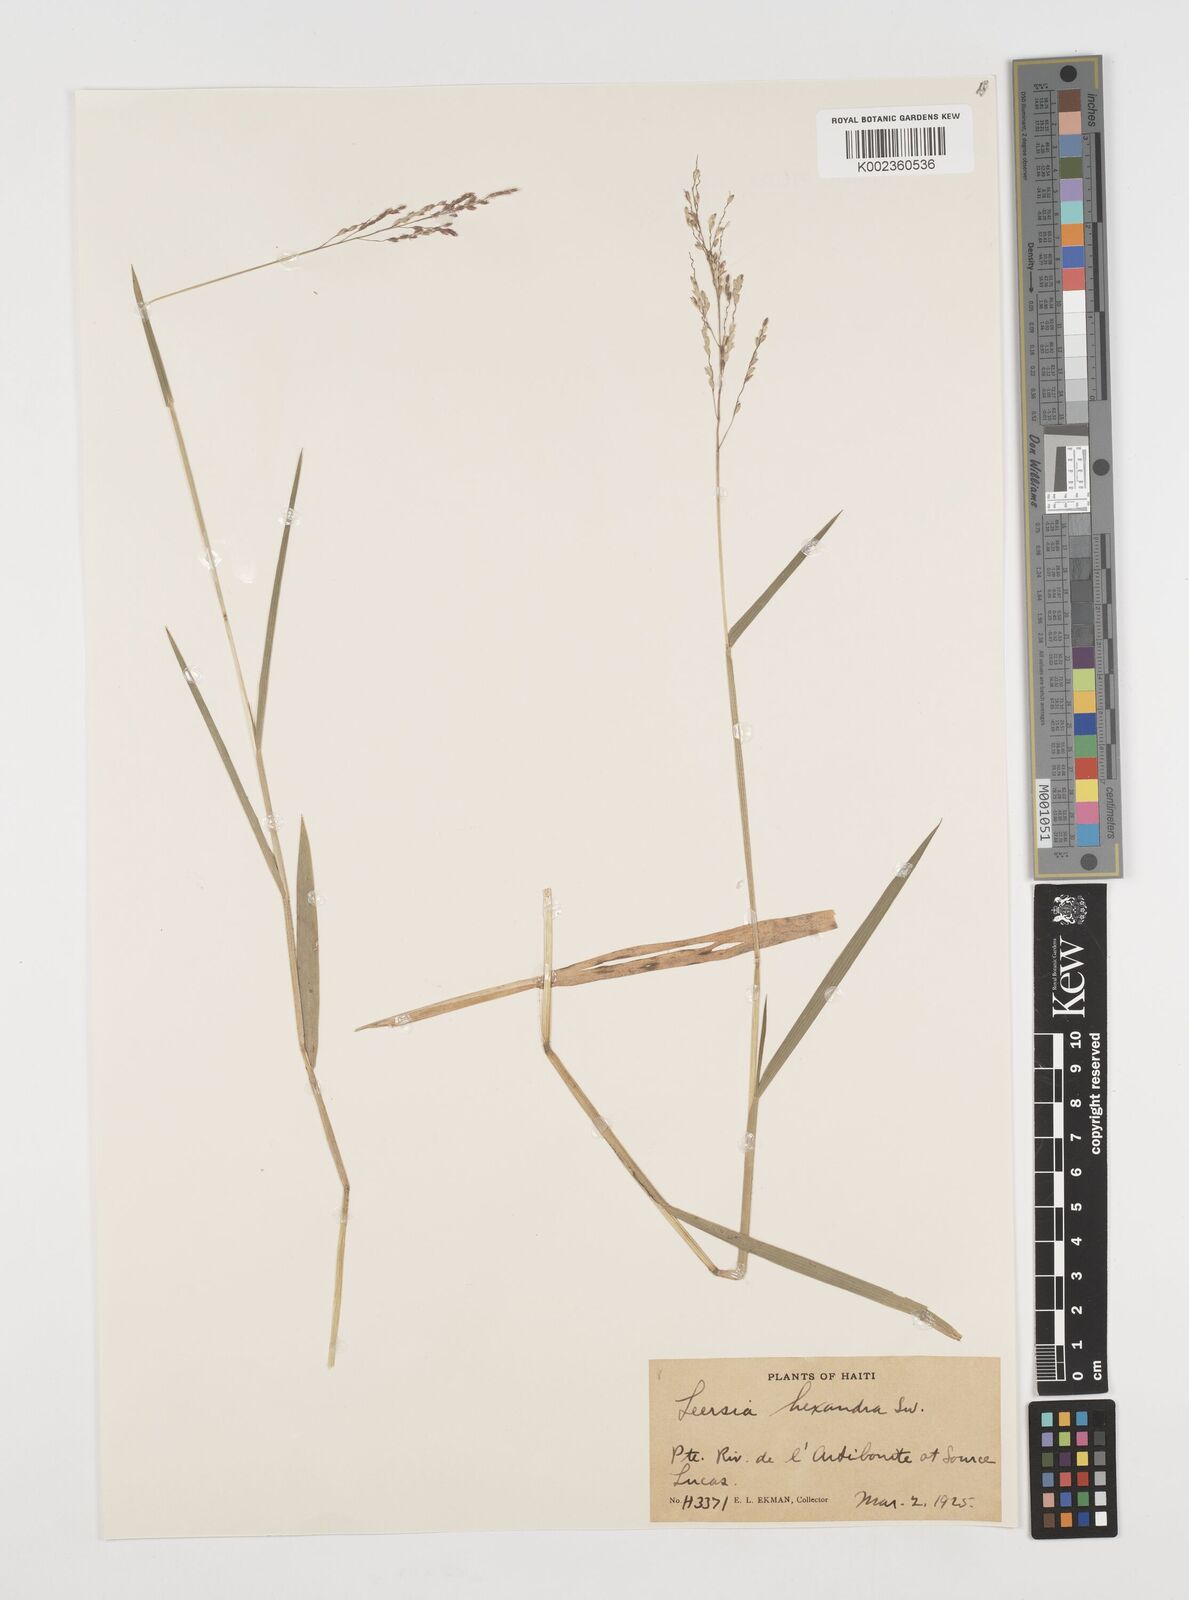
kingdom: Plantae
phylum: Tracheophyta
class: Liliopsida
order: Poales
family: Poaceae
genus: Leersia
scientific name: Leersia hexandra
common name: Southern cut grass
